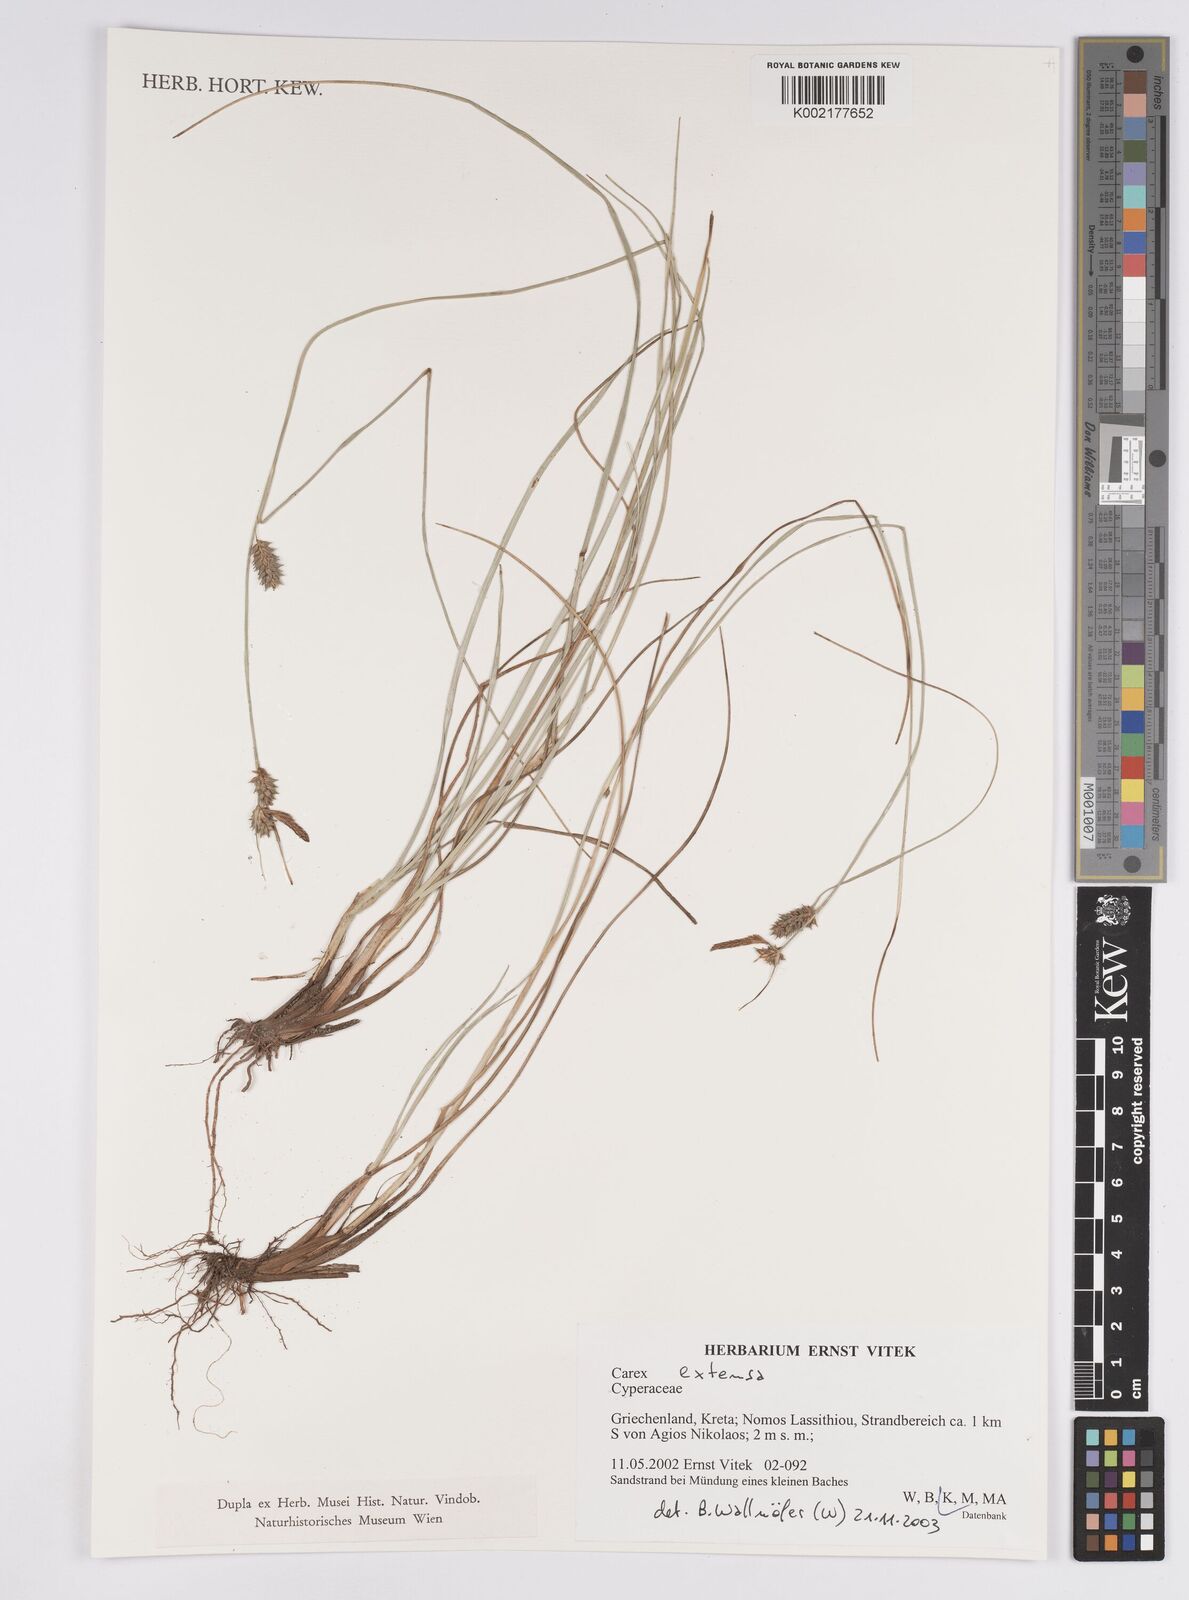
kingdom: Plantae
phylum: Tracheophyta
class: Liliopsida
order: Poales
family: Cyperaceae
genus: Carex
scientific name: Carex extensa
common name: Long-bracted sedge
